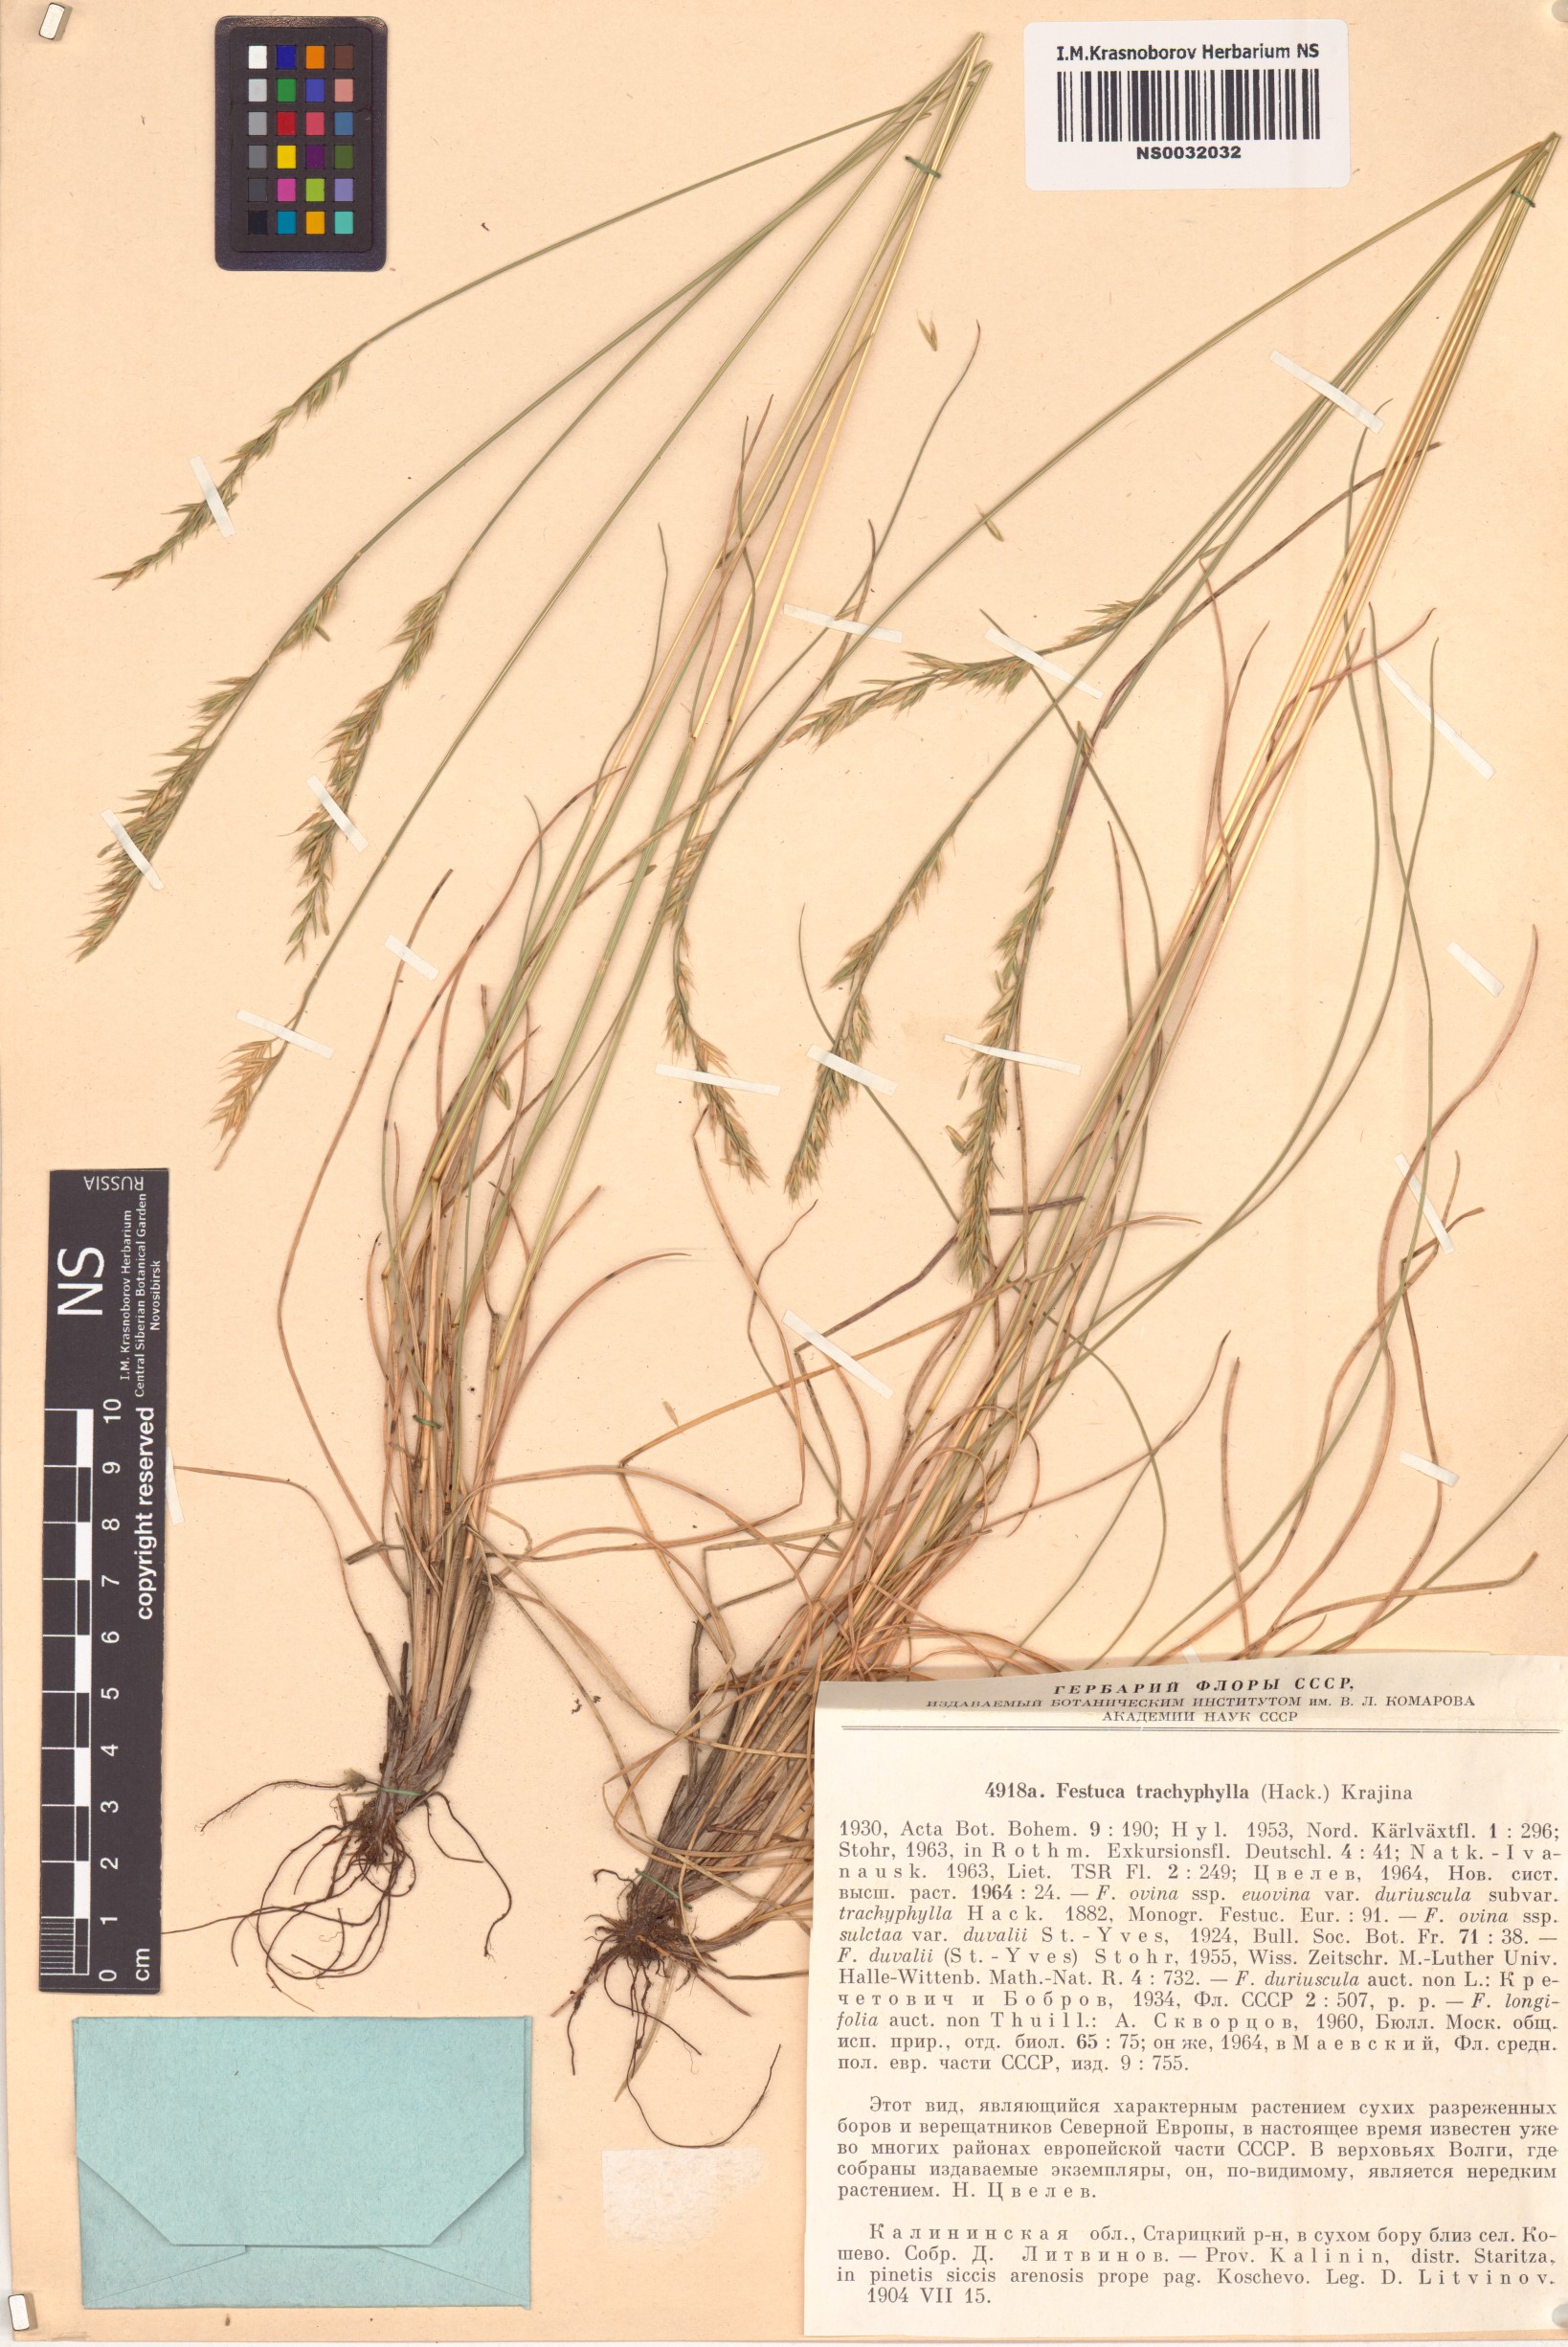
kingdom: Plantae
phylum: Tracheophyta
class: Liliopsida
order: Poales
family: Poaceae
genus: Festuca
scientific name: Festuca trachyphylla
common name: Hard fescue
